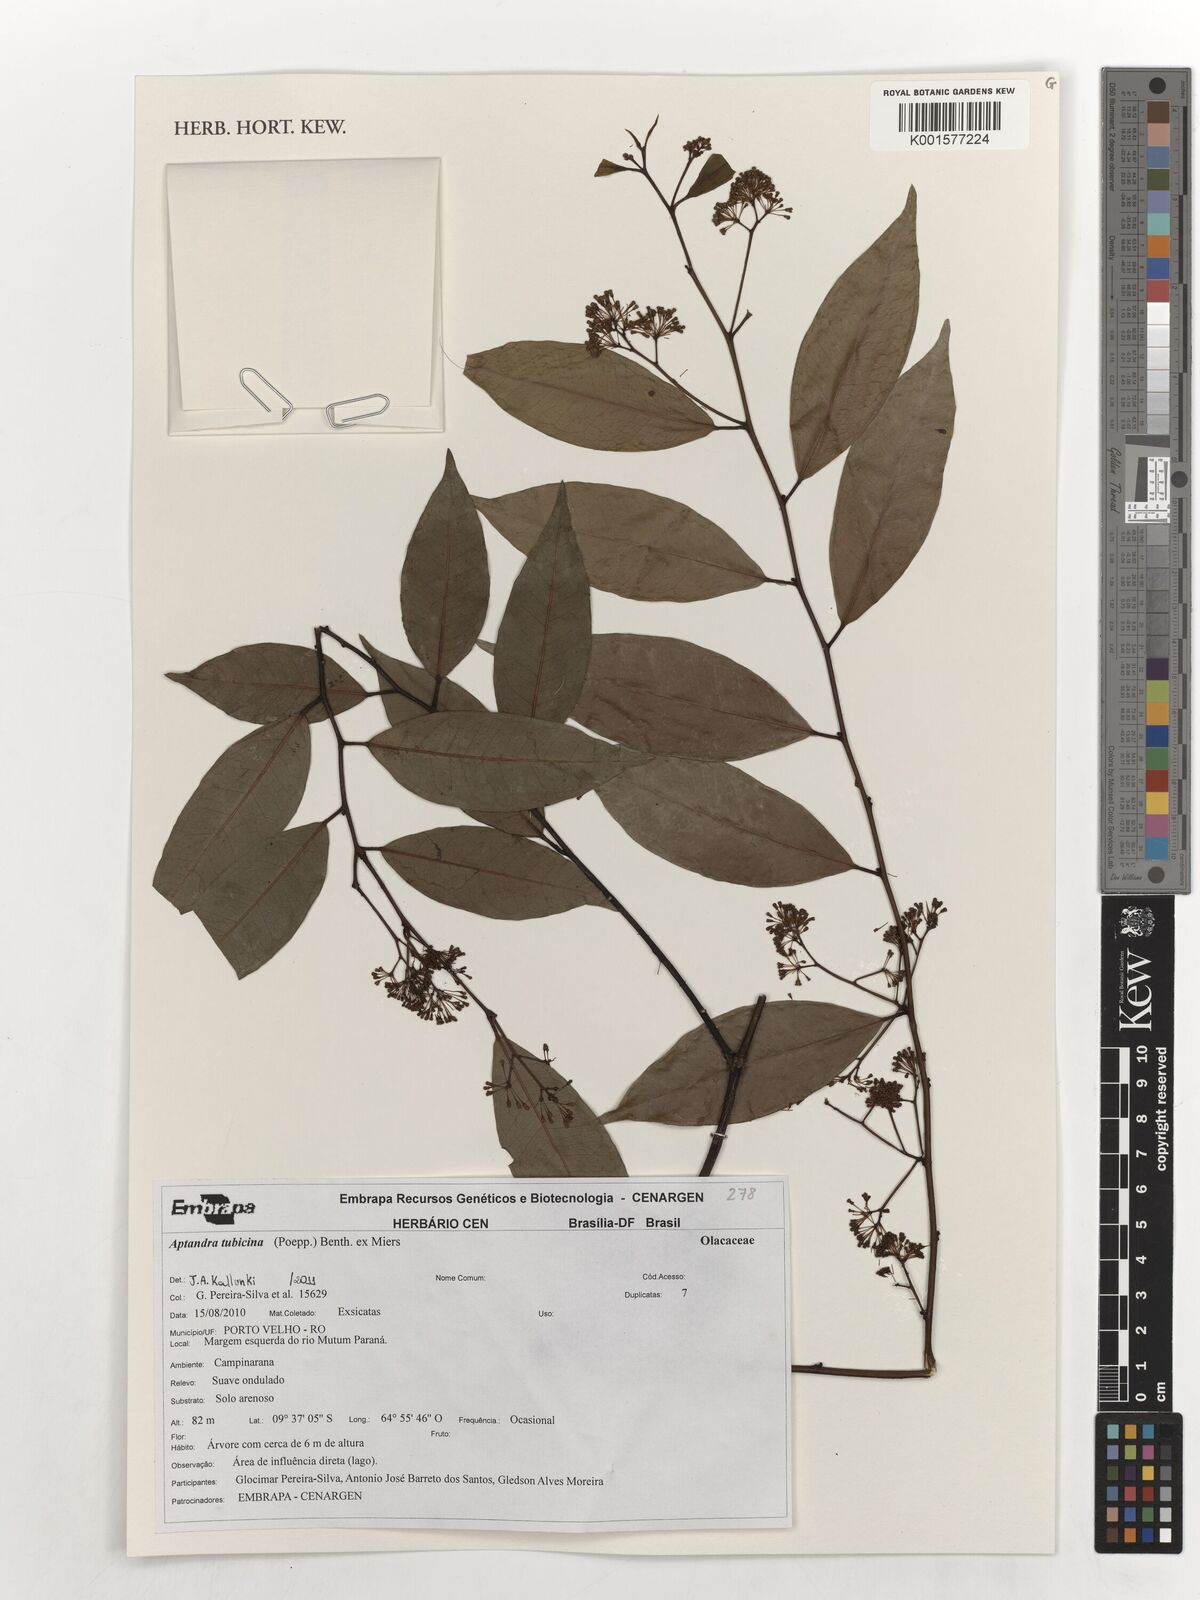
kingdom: Plantae
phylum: Tracheophyta
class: Magnoliopsida
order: Santalales
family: Aptandraceae
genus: Aptandra
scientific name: Aptandra tubicina
